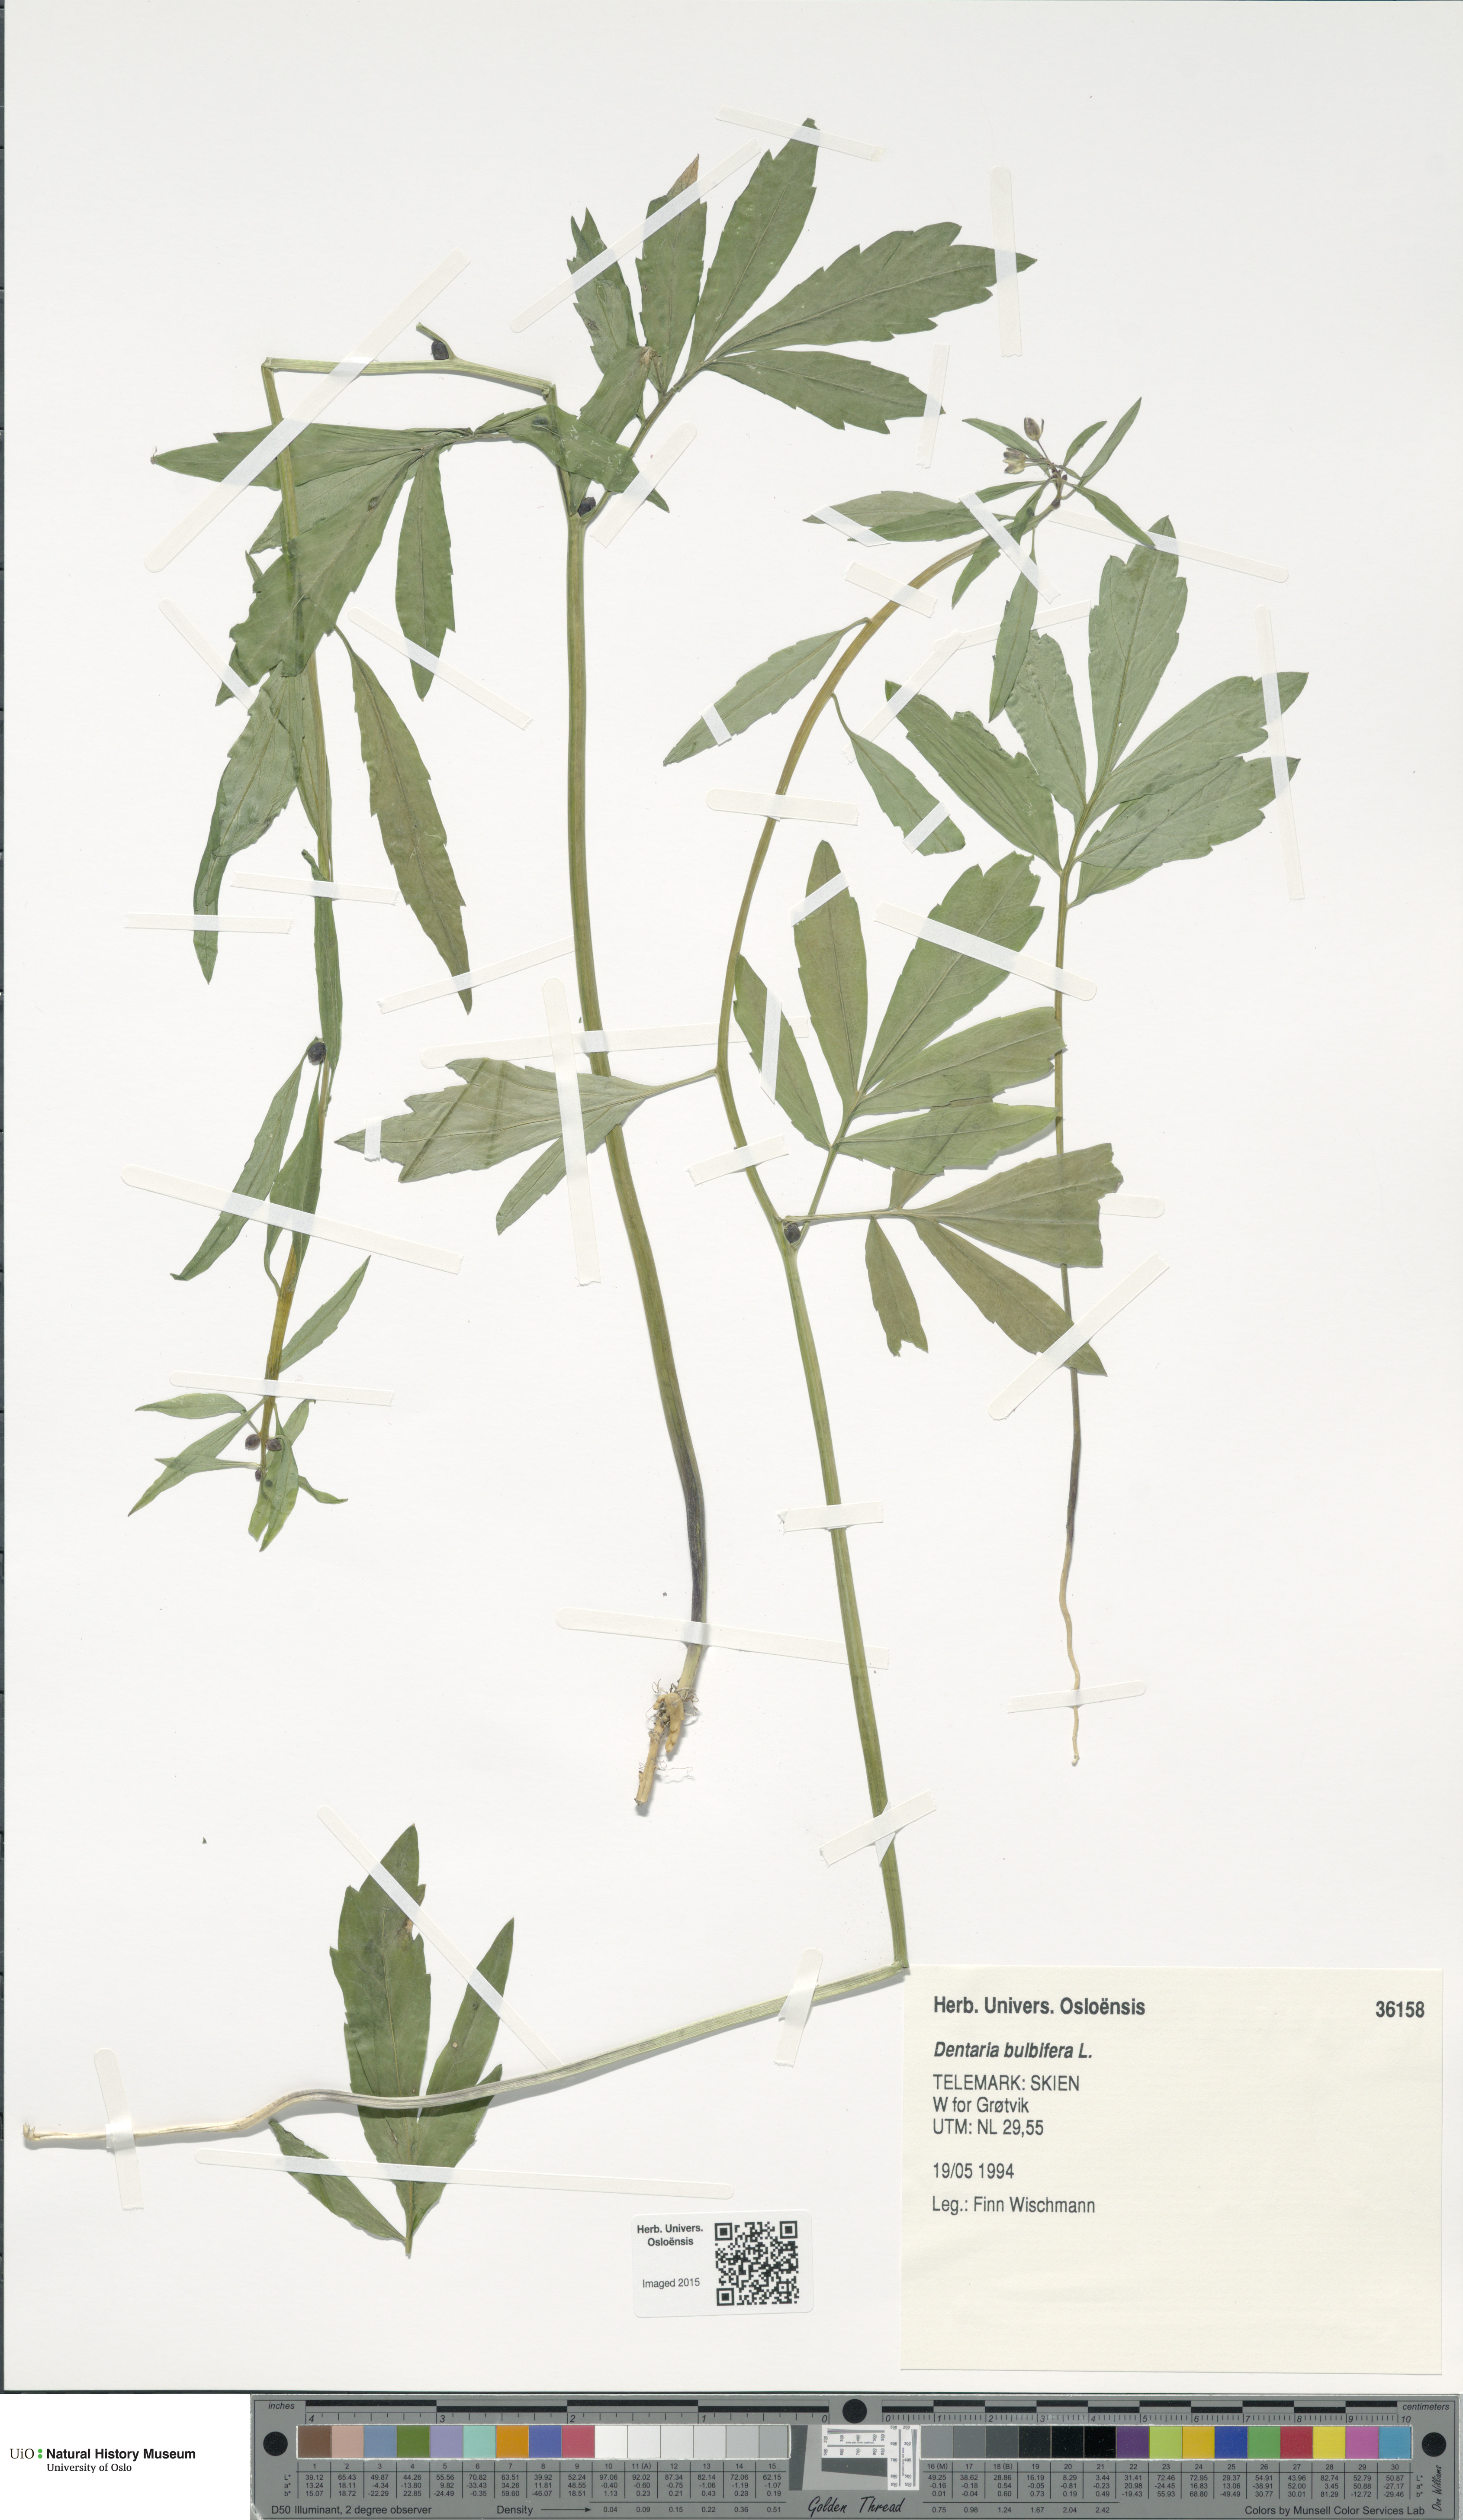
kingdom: Plantae
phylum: Tracheophyta
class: Magnoliopsida
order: Brassicales
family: Brassicaceae
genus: Cardamine
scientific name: Cardamine bulbifera
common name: Coralroot bittercress
